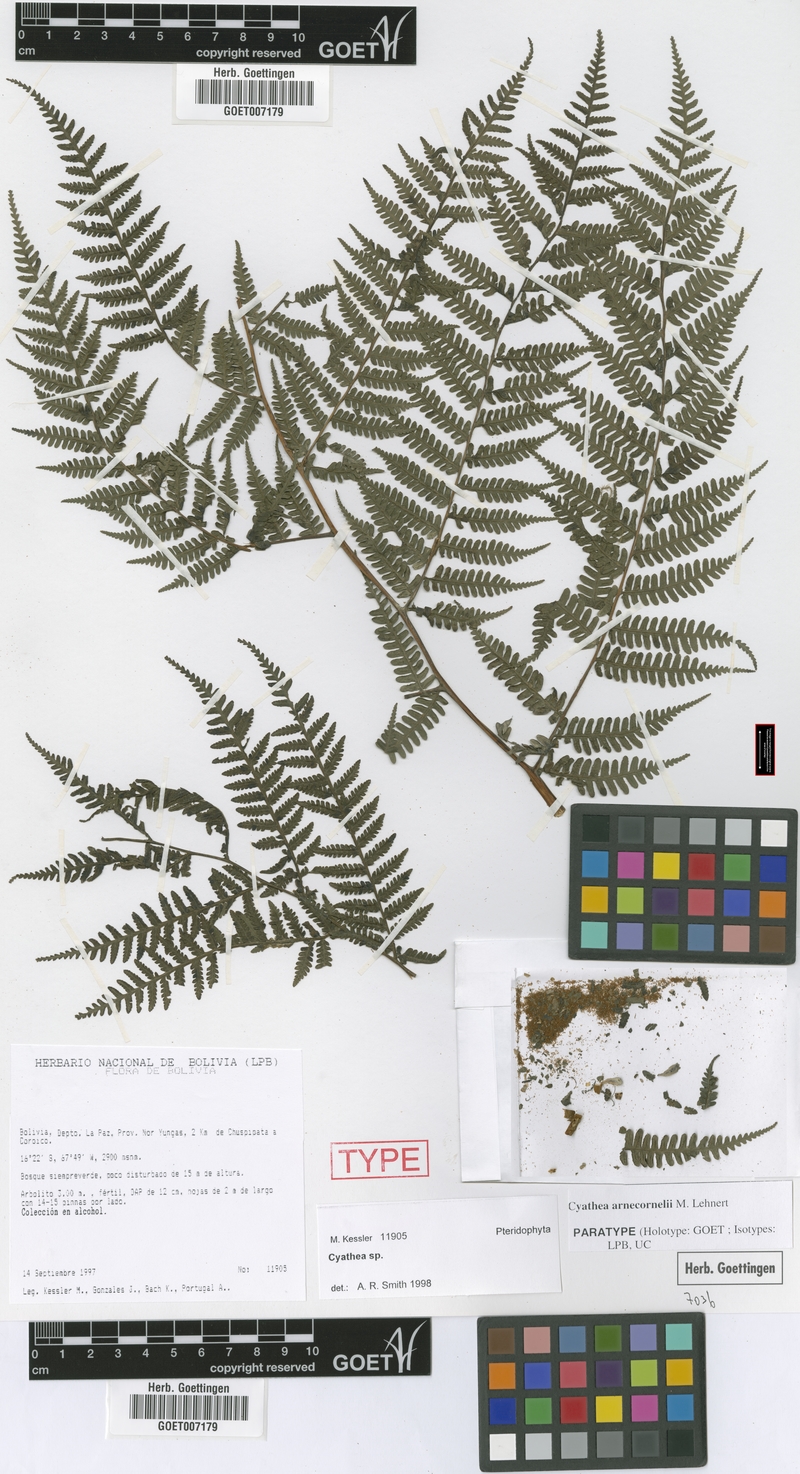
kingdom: Plantae
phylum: Tracheophyta
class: Polypodiopsida
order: Cyatheales
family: Cyatheaceae
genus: Cyathea
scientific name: Cyathea arnecornelii
